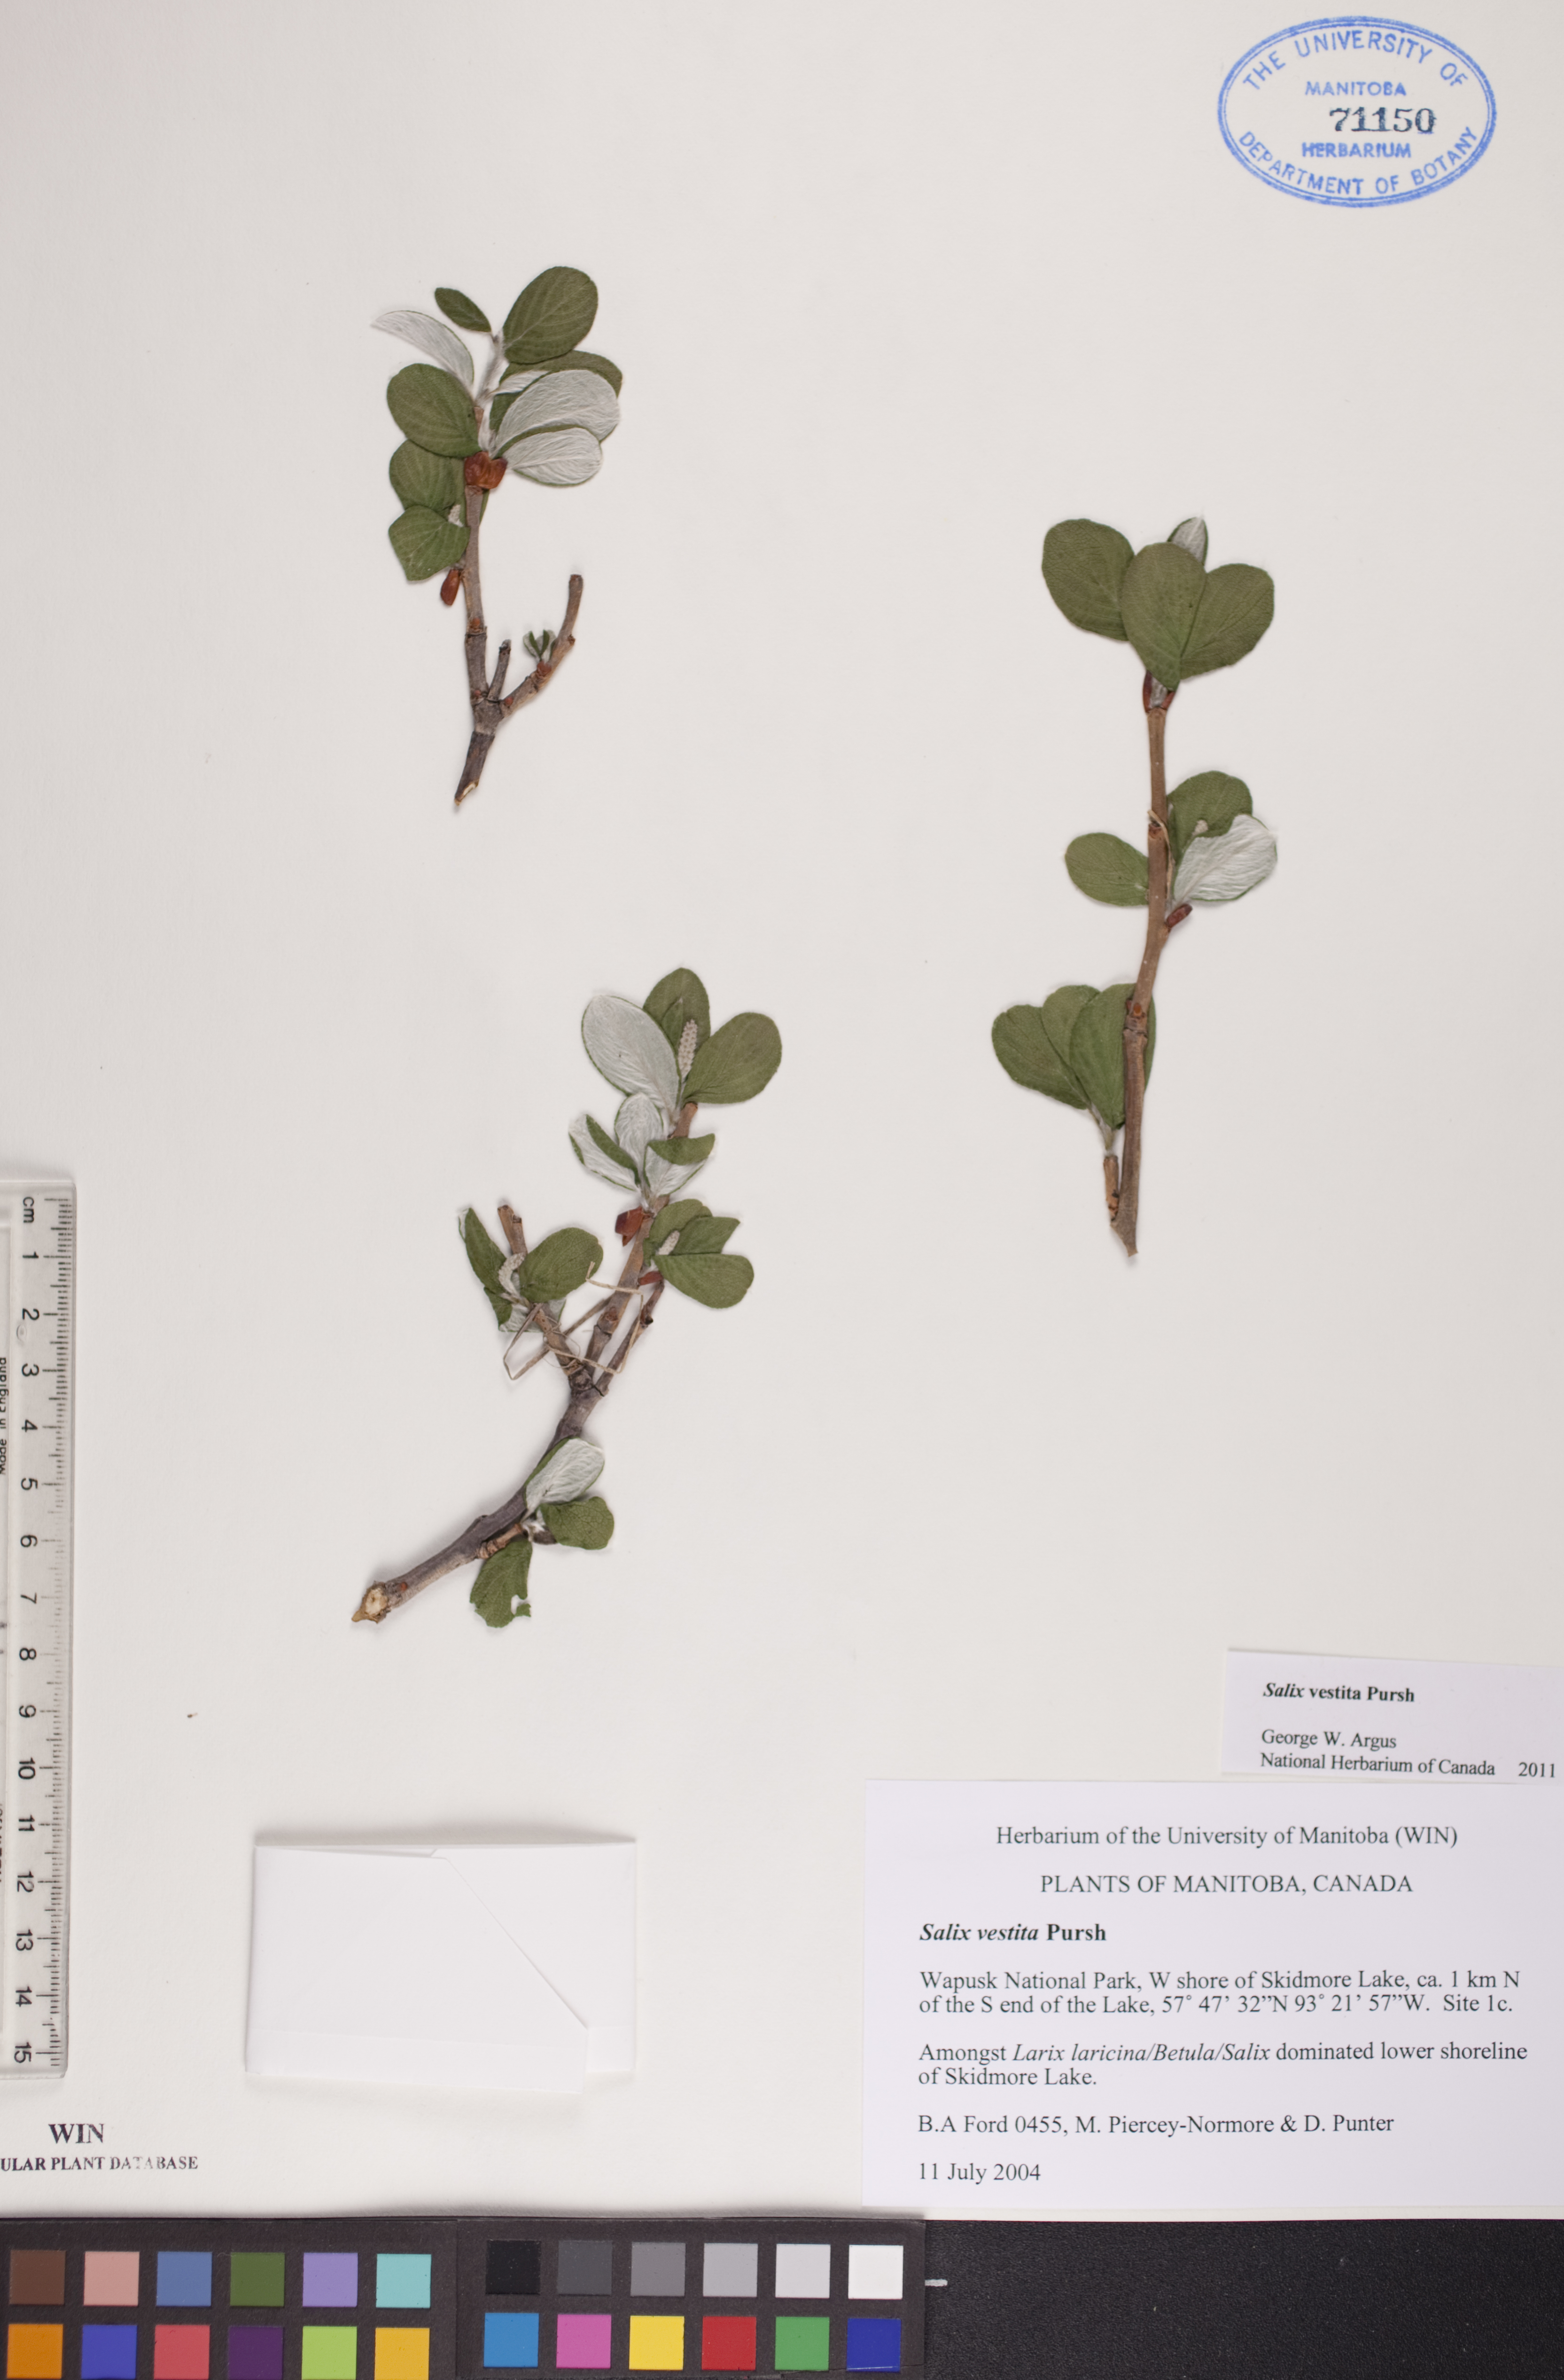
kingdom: Plantae
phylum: Tracheophyta
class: Magnoliopsida
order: Malpighiales
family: Salicaceae
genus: Salix
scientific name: Salix vestita
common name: Hairy willow
